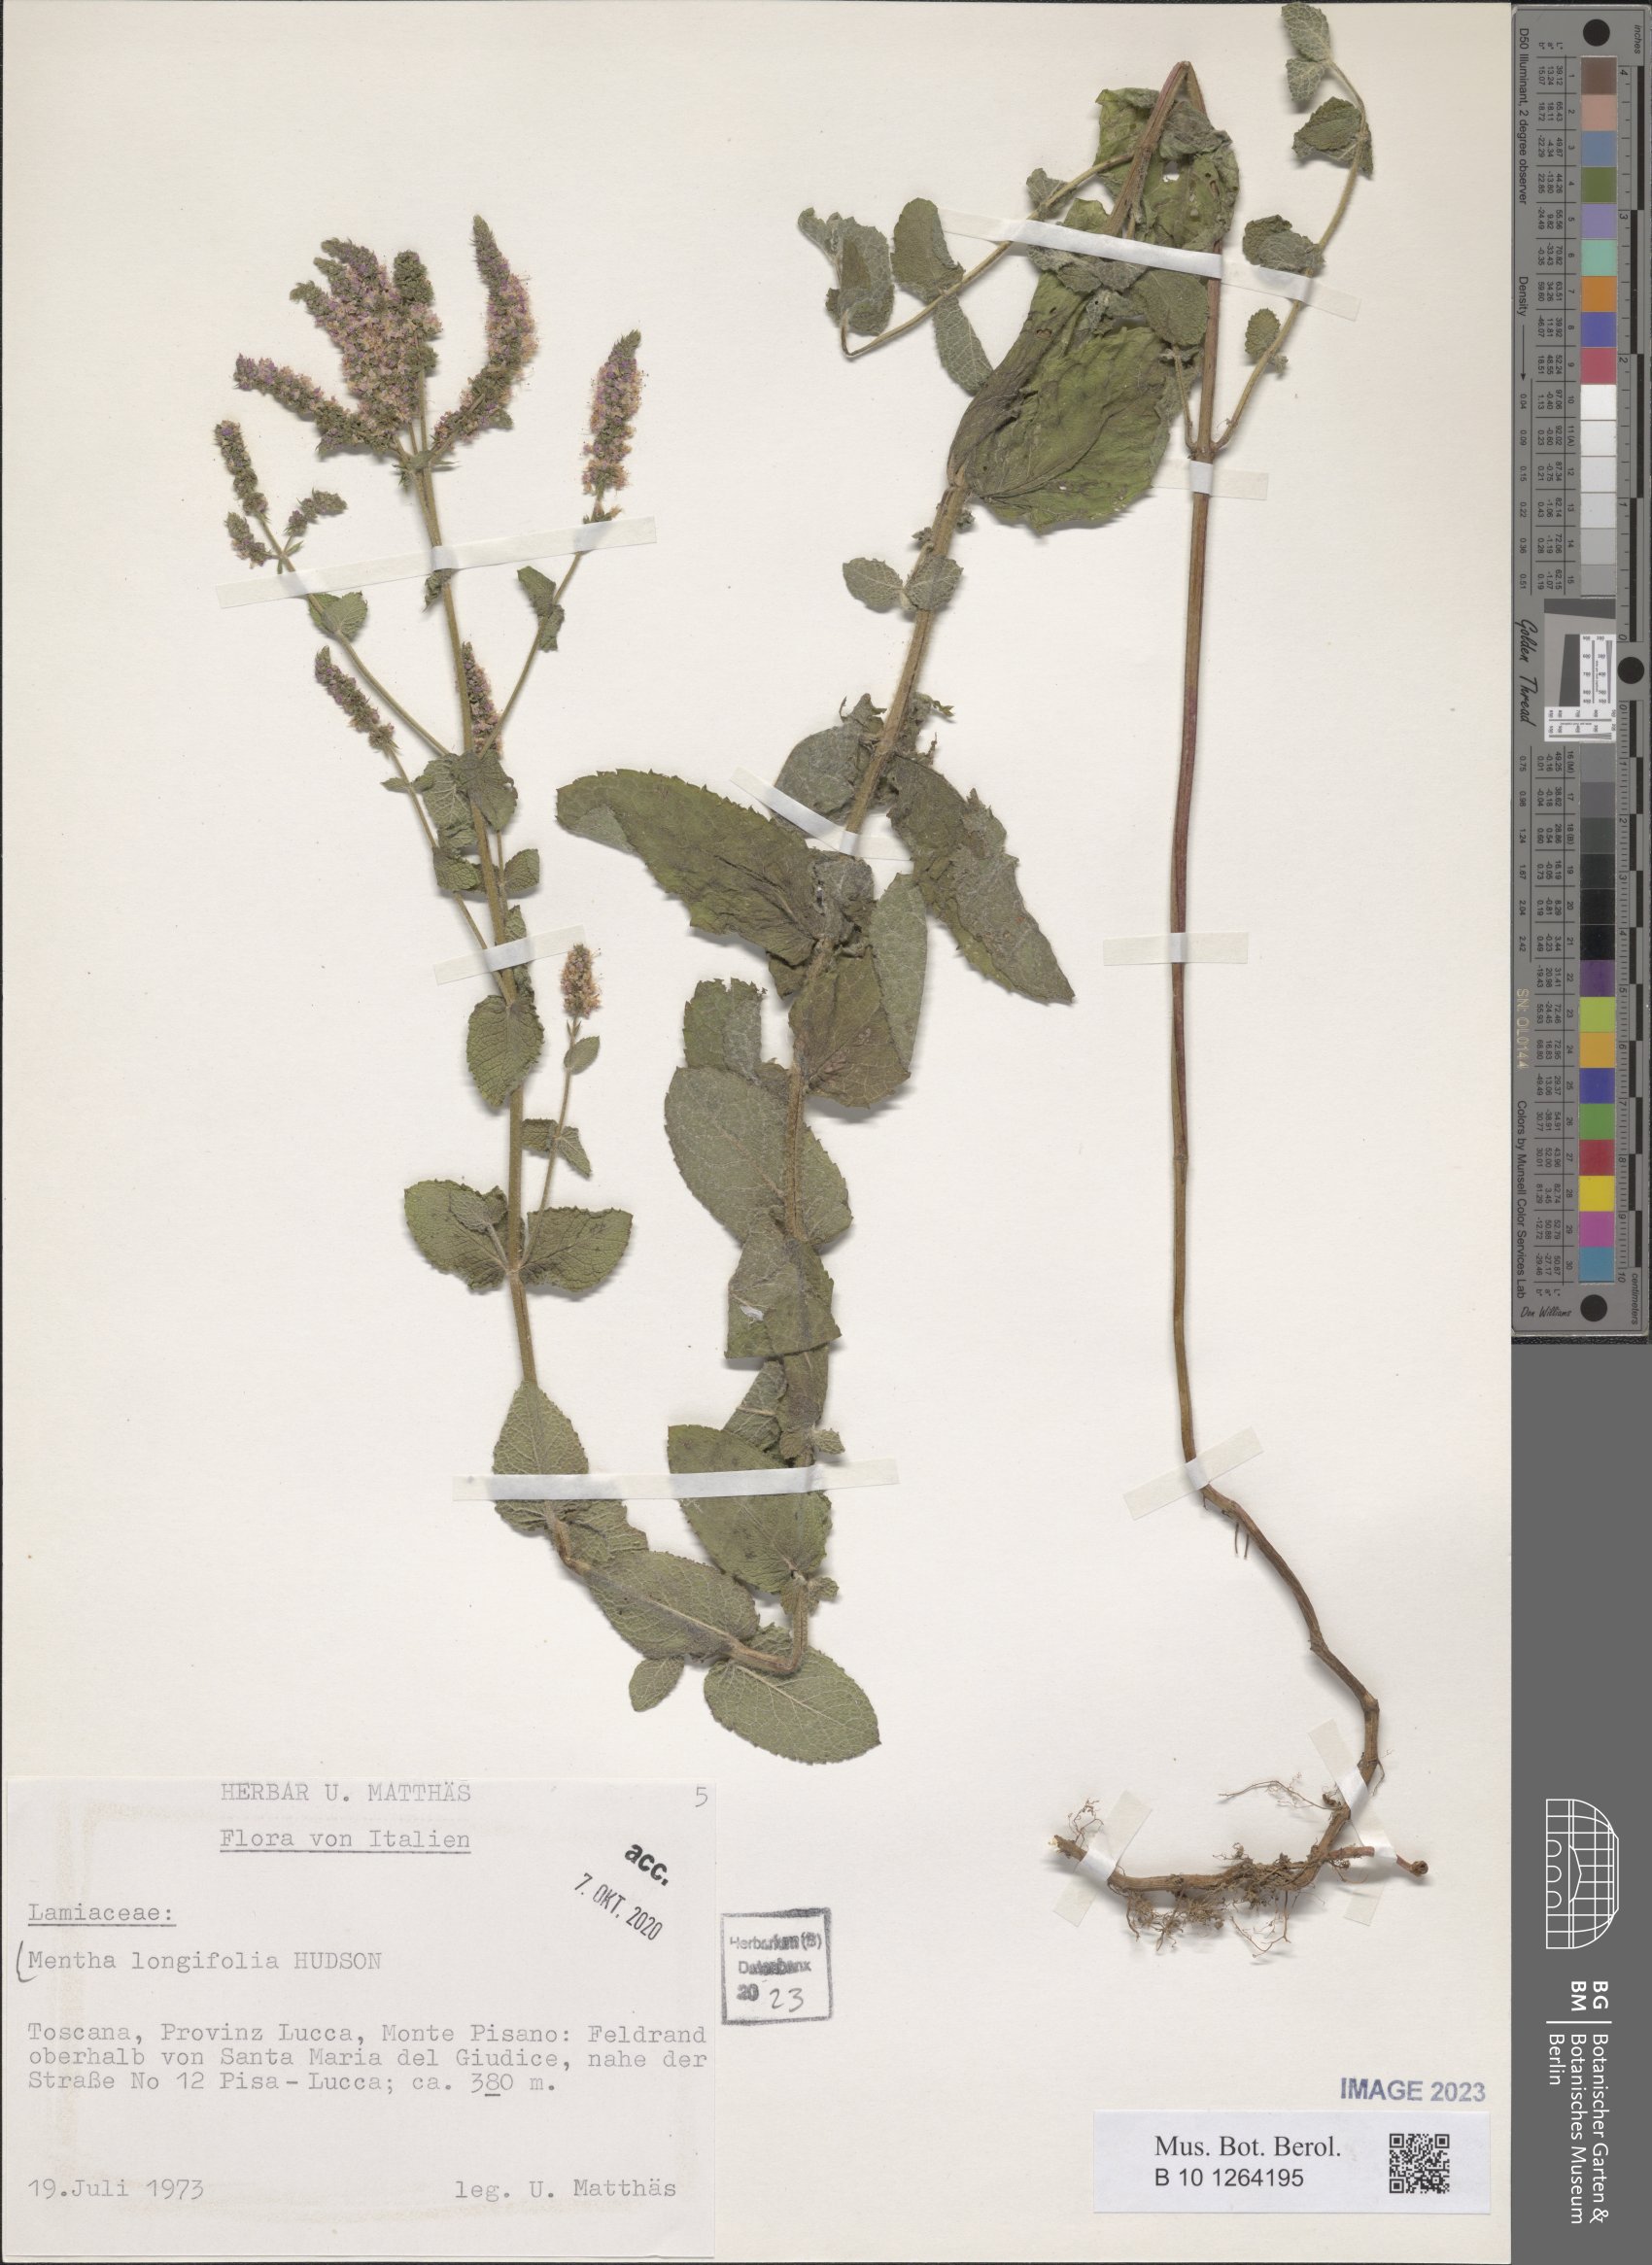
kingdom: Plantae
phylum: Tracheophyta
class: Magnoliopsida
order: Lamiales
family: Lamiaceae
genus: Mentha
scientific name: Mentha longifolia
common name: Horse mint
